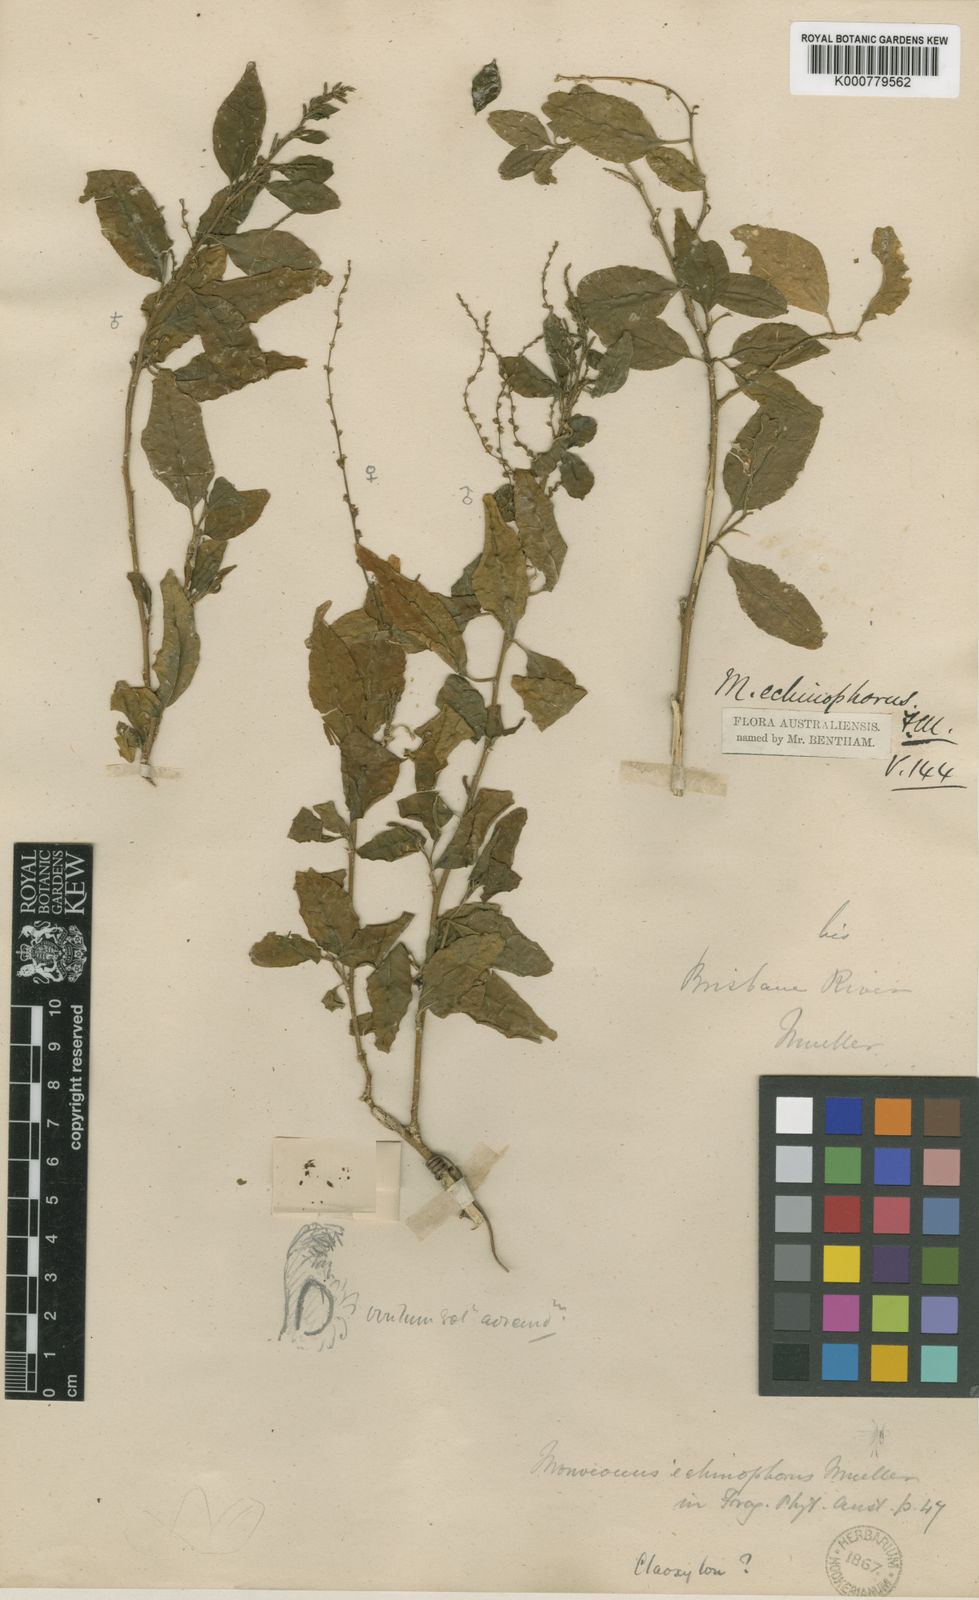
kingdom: Plantae
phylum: Tracheophyta
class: Magnoliopsida
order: Caryophyllales
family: Phytolaccaceae
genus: Monococcus
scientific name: Monococcus echinophorus
